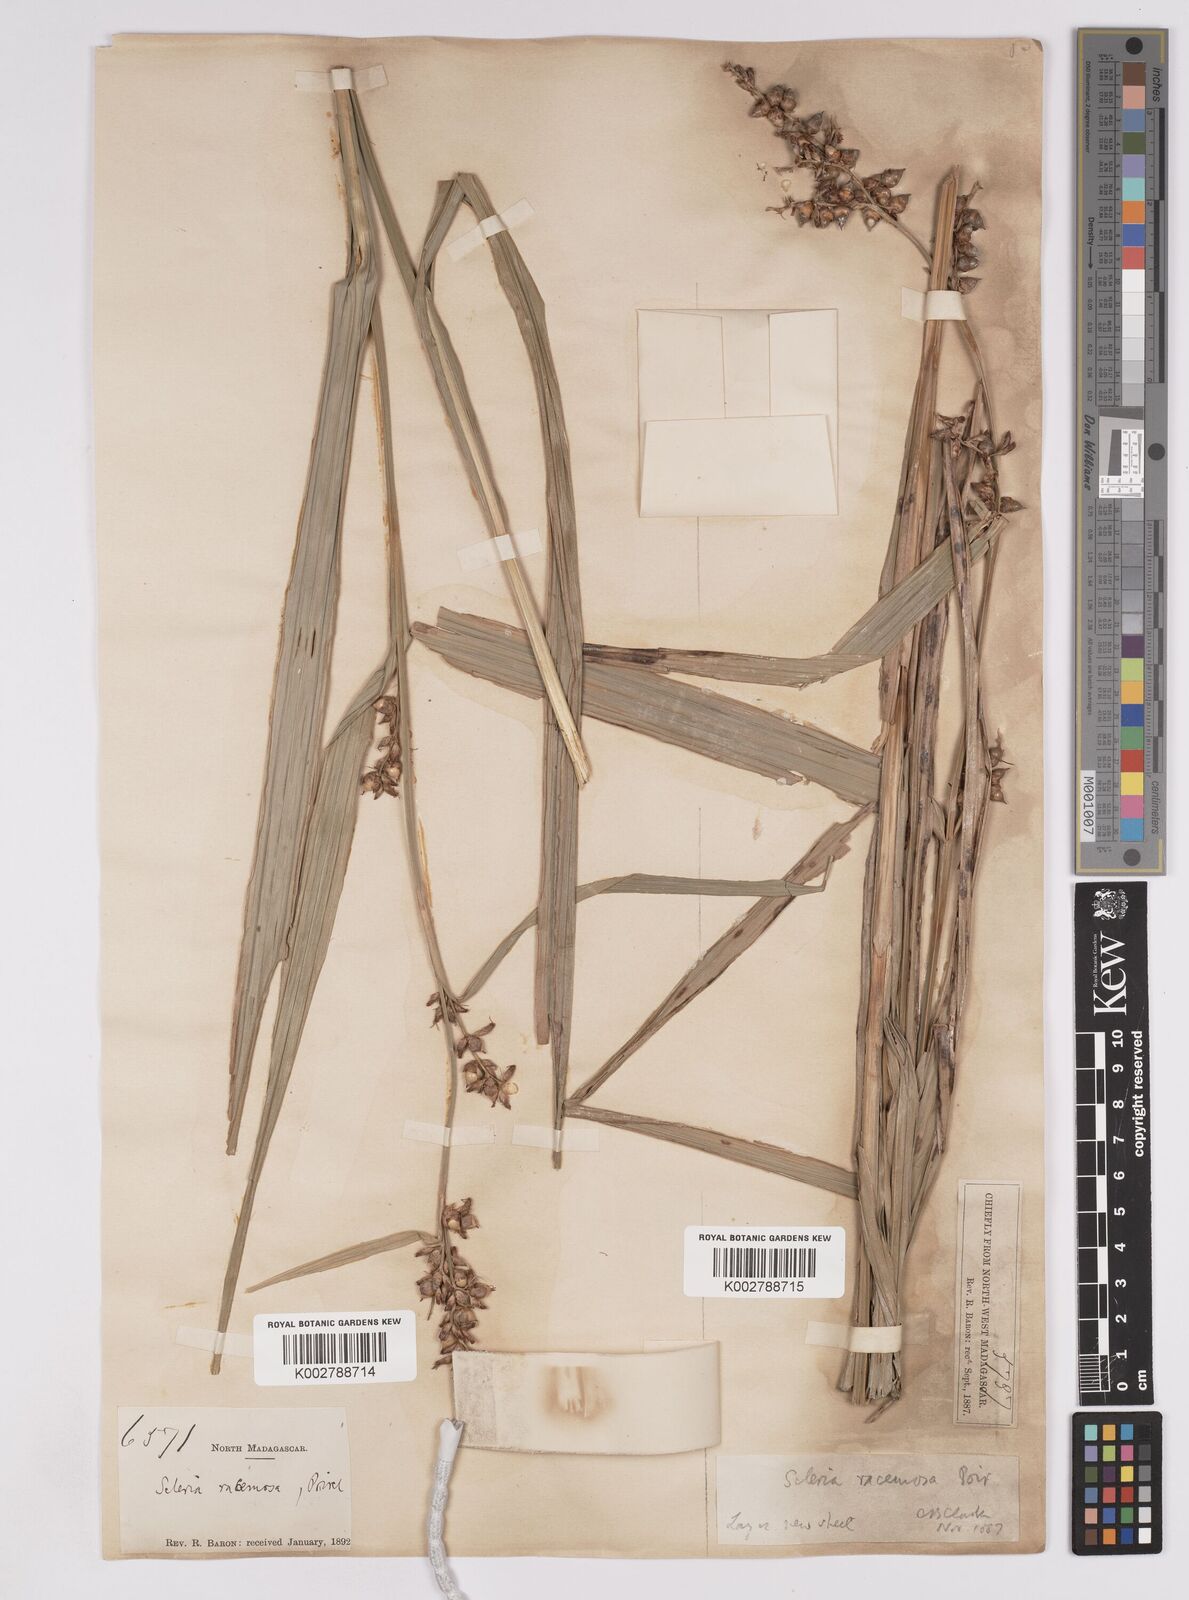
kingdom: Plantae
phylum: Tracheophyta
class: Liliopsida
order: Poales
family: Cyperaceae
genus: Scleria
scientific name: Scleria racemosa
